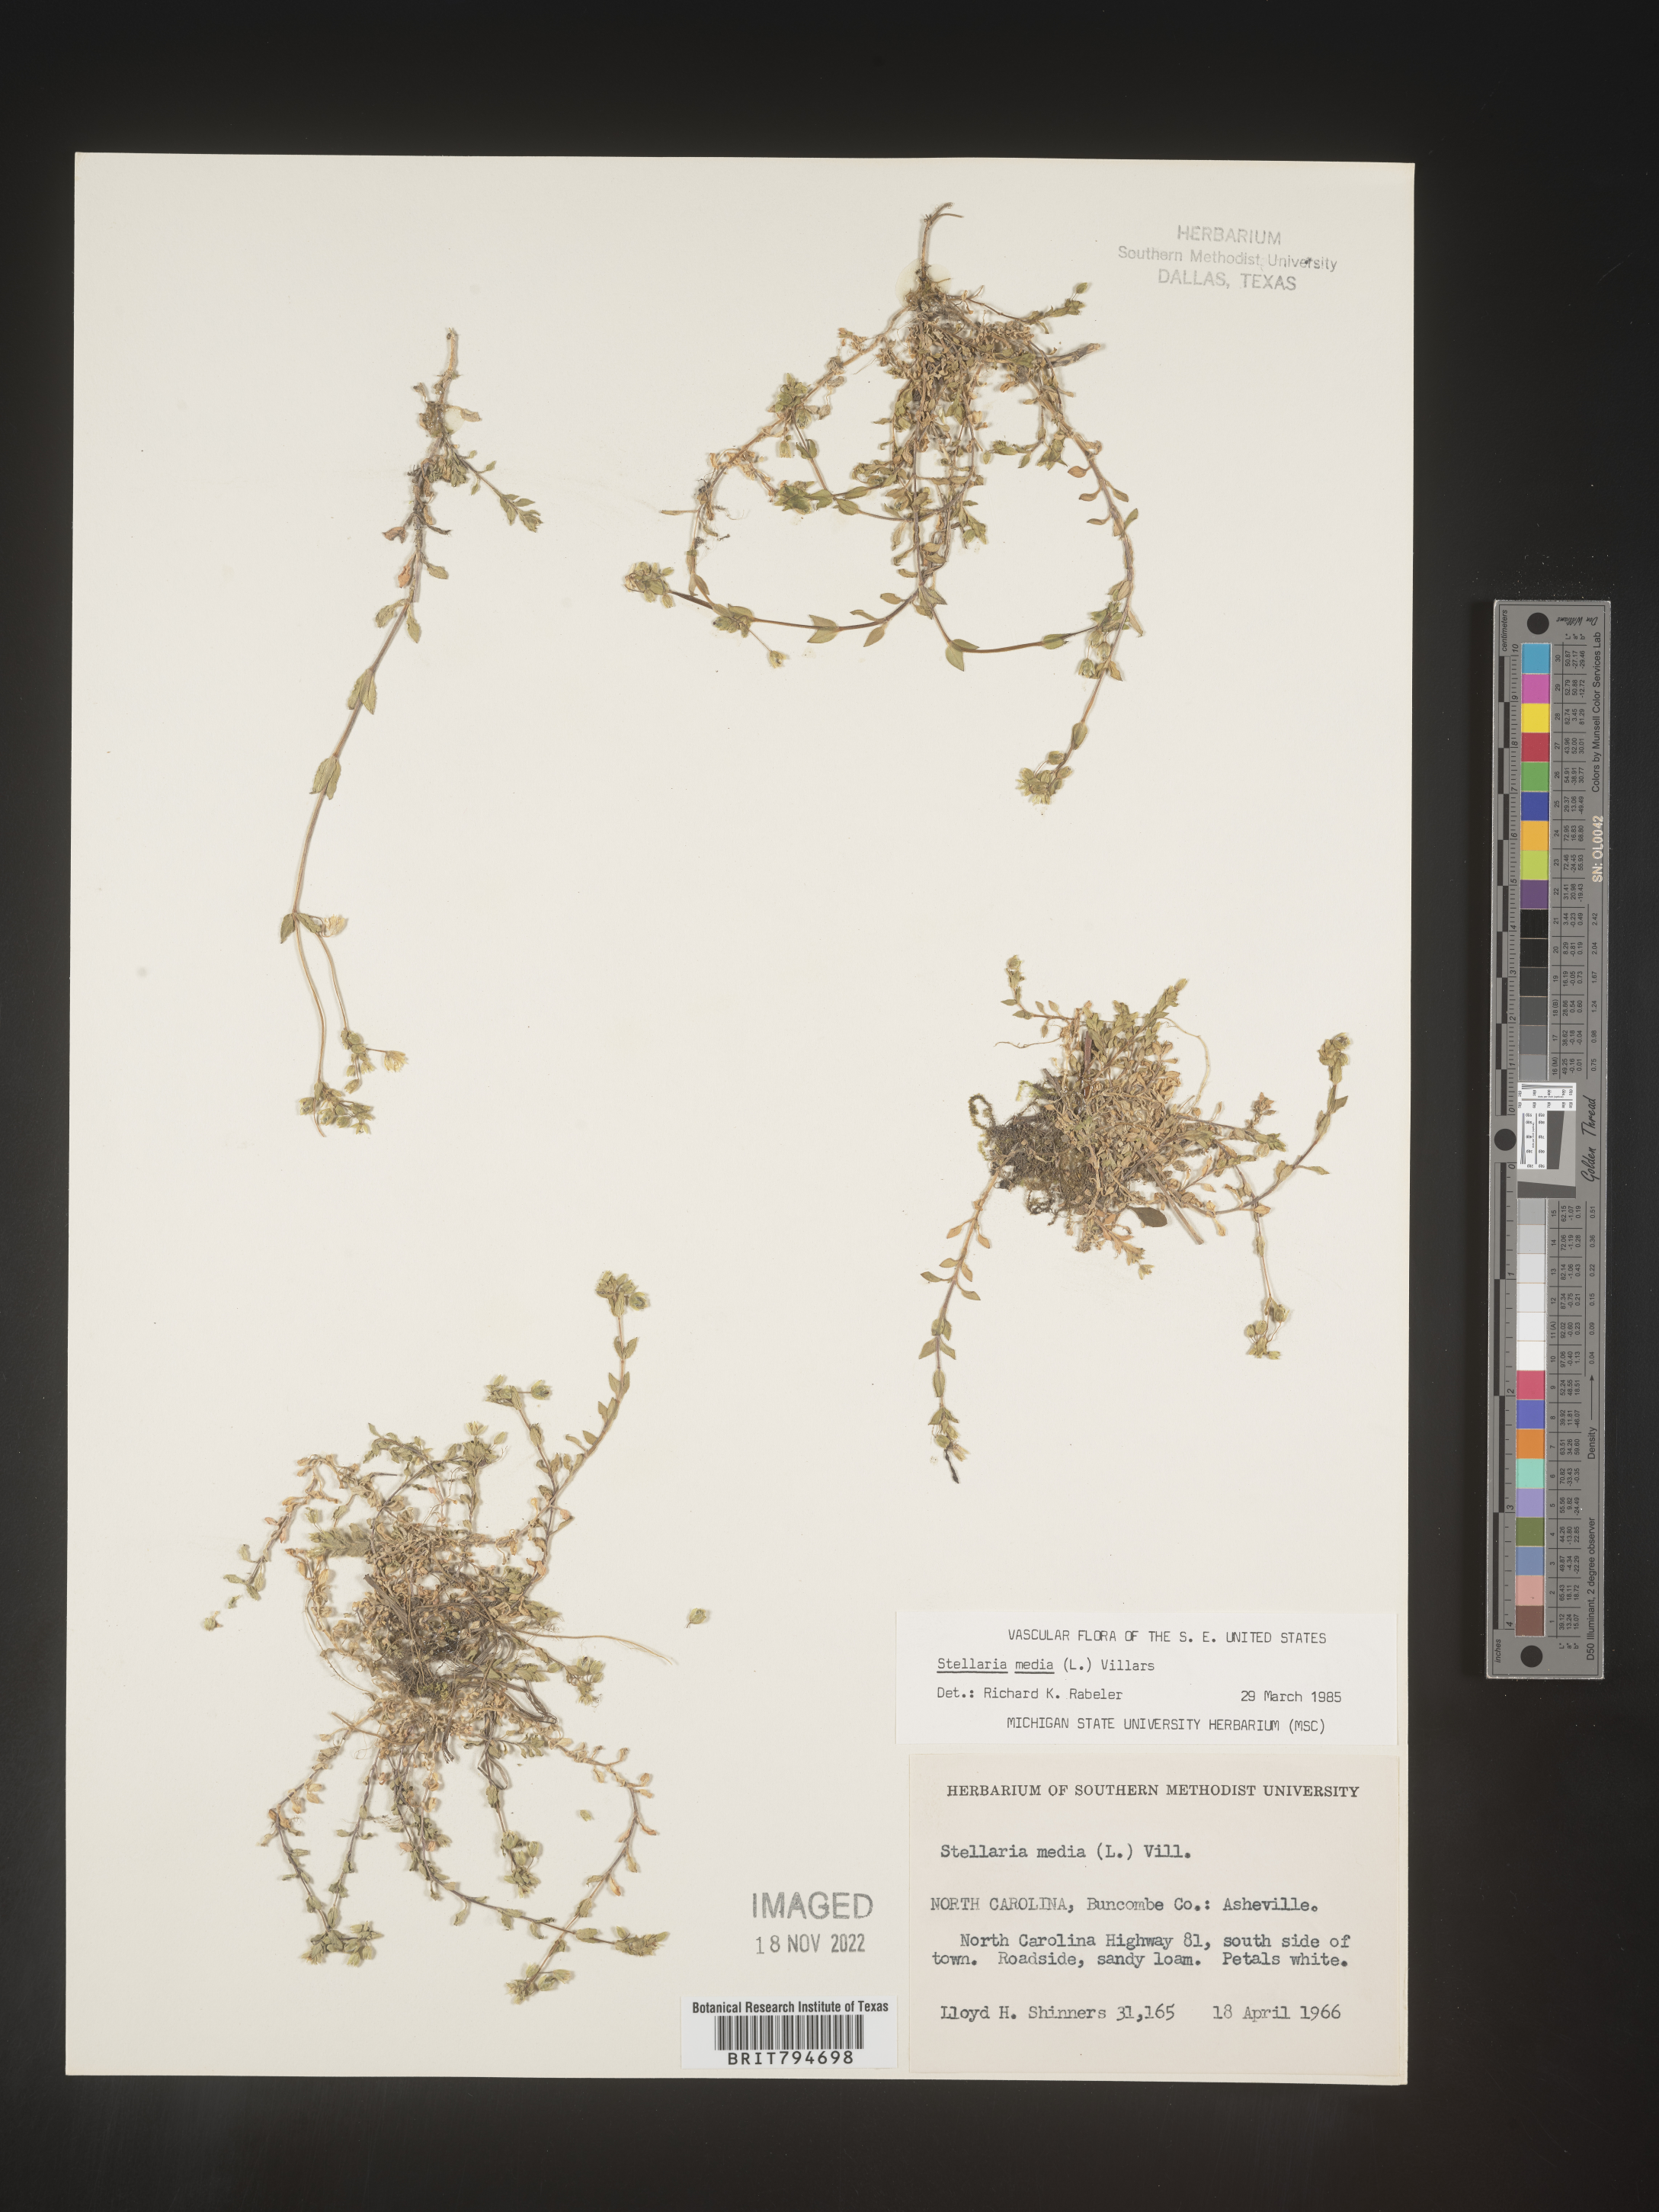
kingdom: Plantae
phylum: Tracheophyta
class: Magnoliopsida
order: Caryophyllales
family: Caryophyllaceae
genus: Stellaria
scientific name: Stellaria media
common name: Common chickweed
